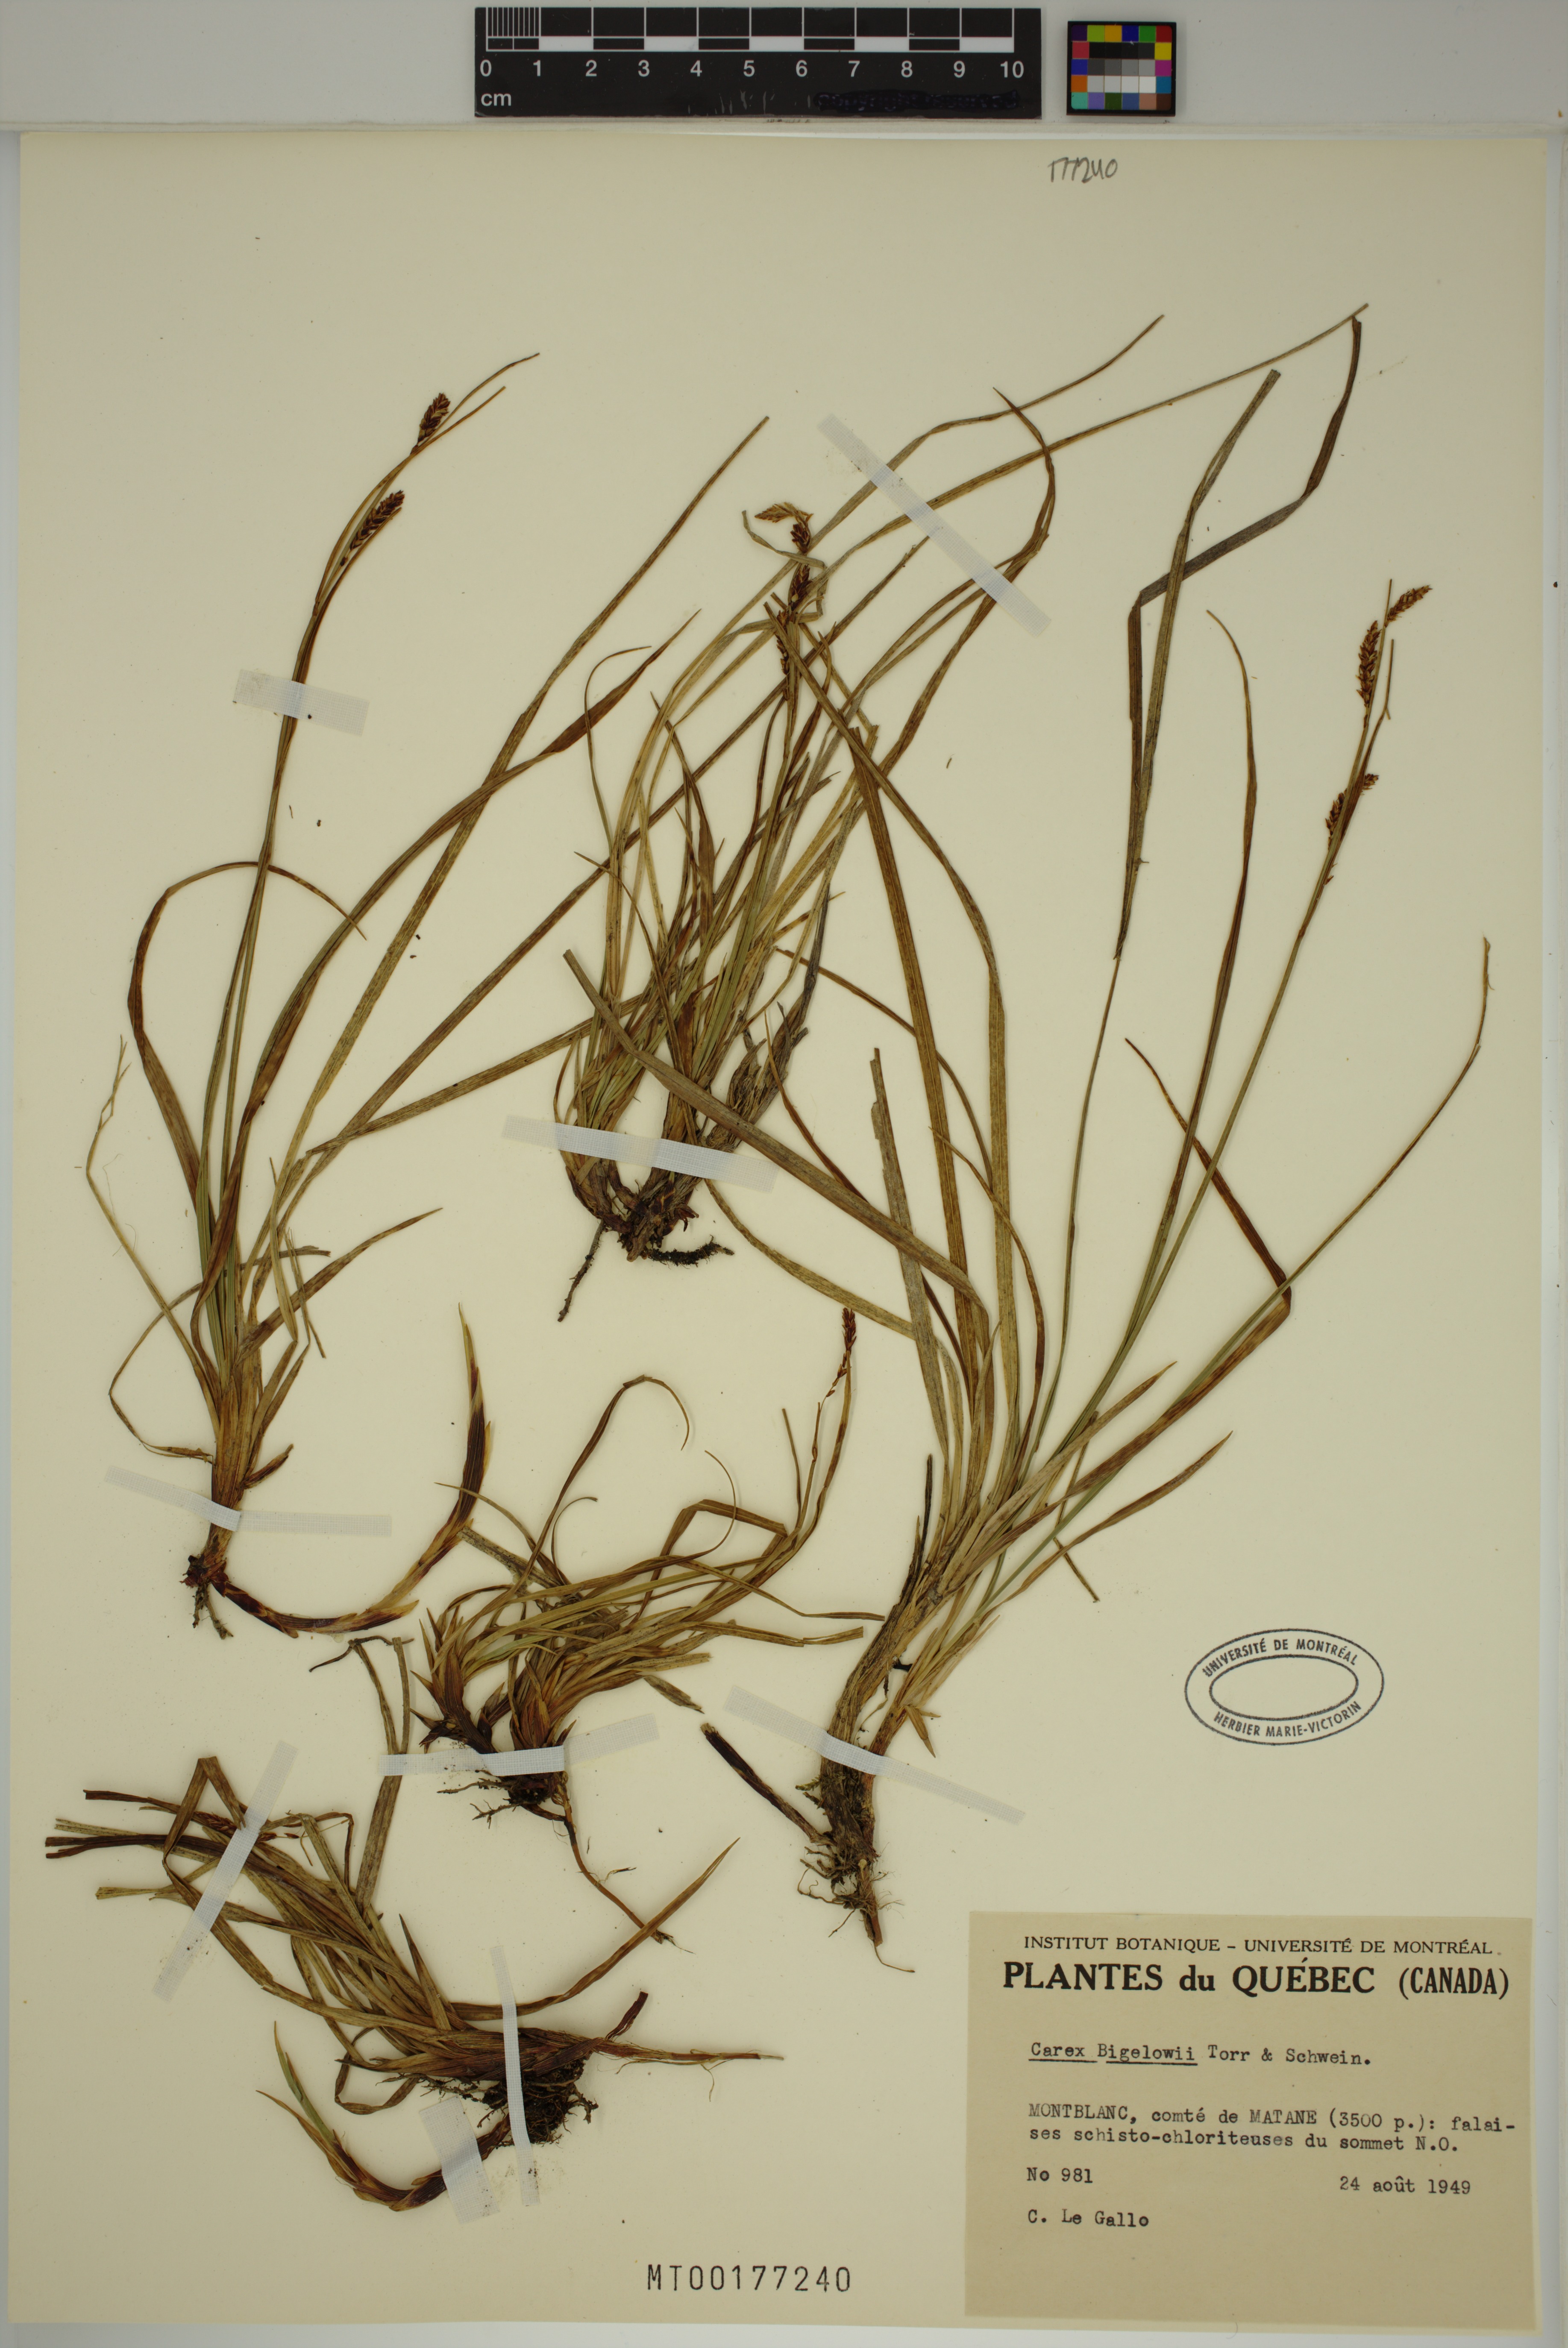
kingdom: Plantae
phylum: Tracheophyta
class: Liliopsida
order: Poales
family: Cyperaceae
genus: Carex
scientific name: Carex bigelowii
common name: Stiff sedge
